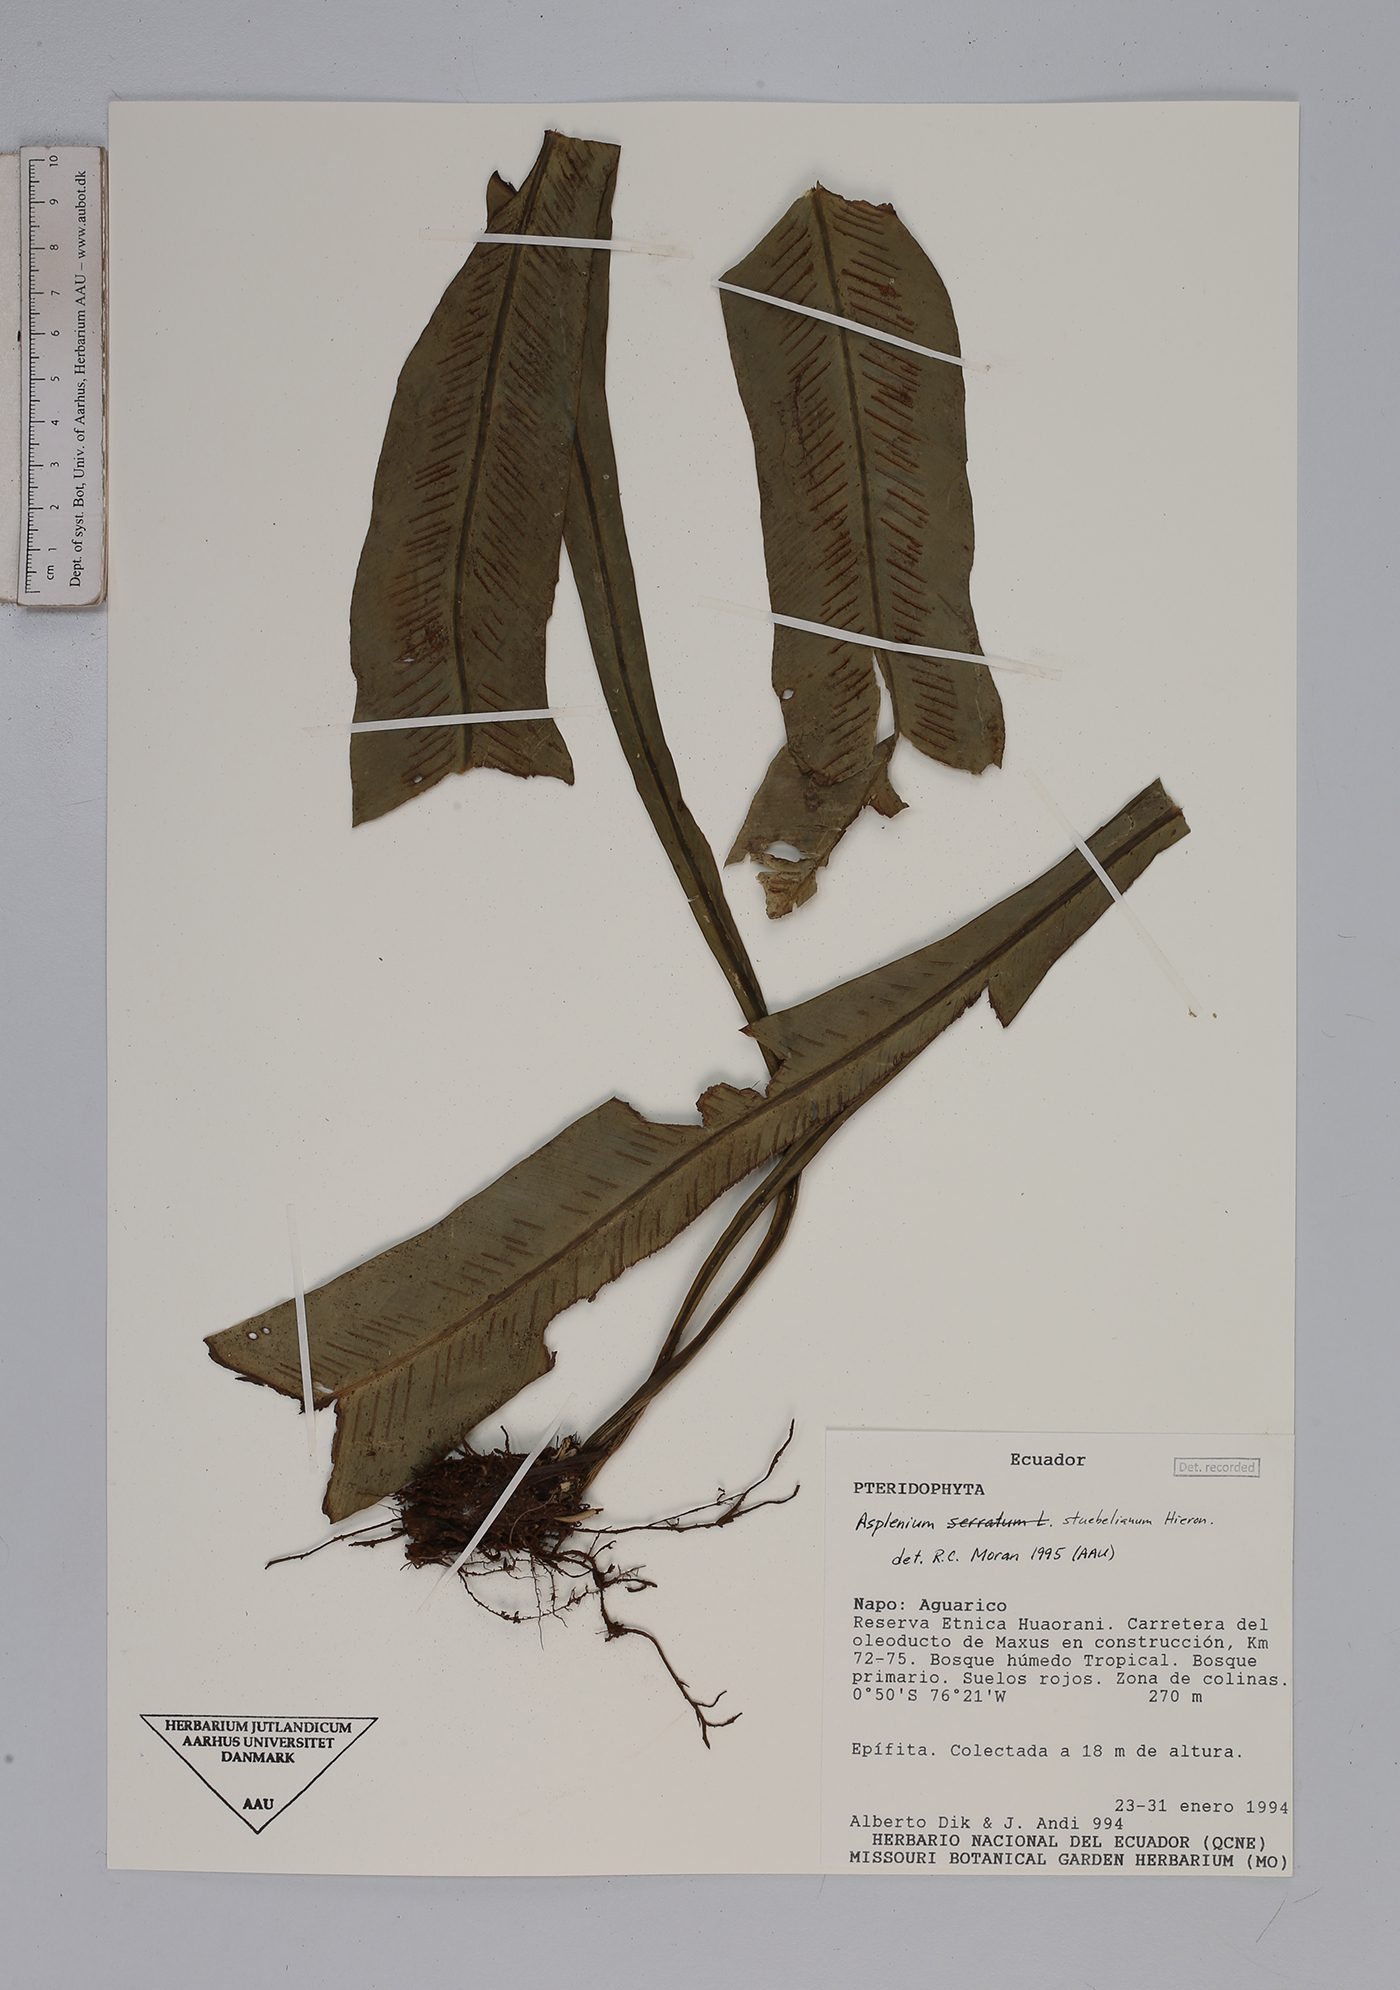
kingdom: Plantae
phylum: Tracheophyta
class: Polypodiopsida
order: Polypodiales
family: Aspleniaceae
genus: Asplenium
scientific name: Asplenium stuebelianum
